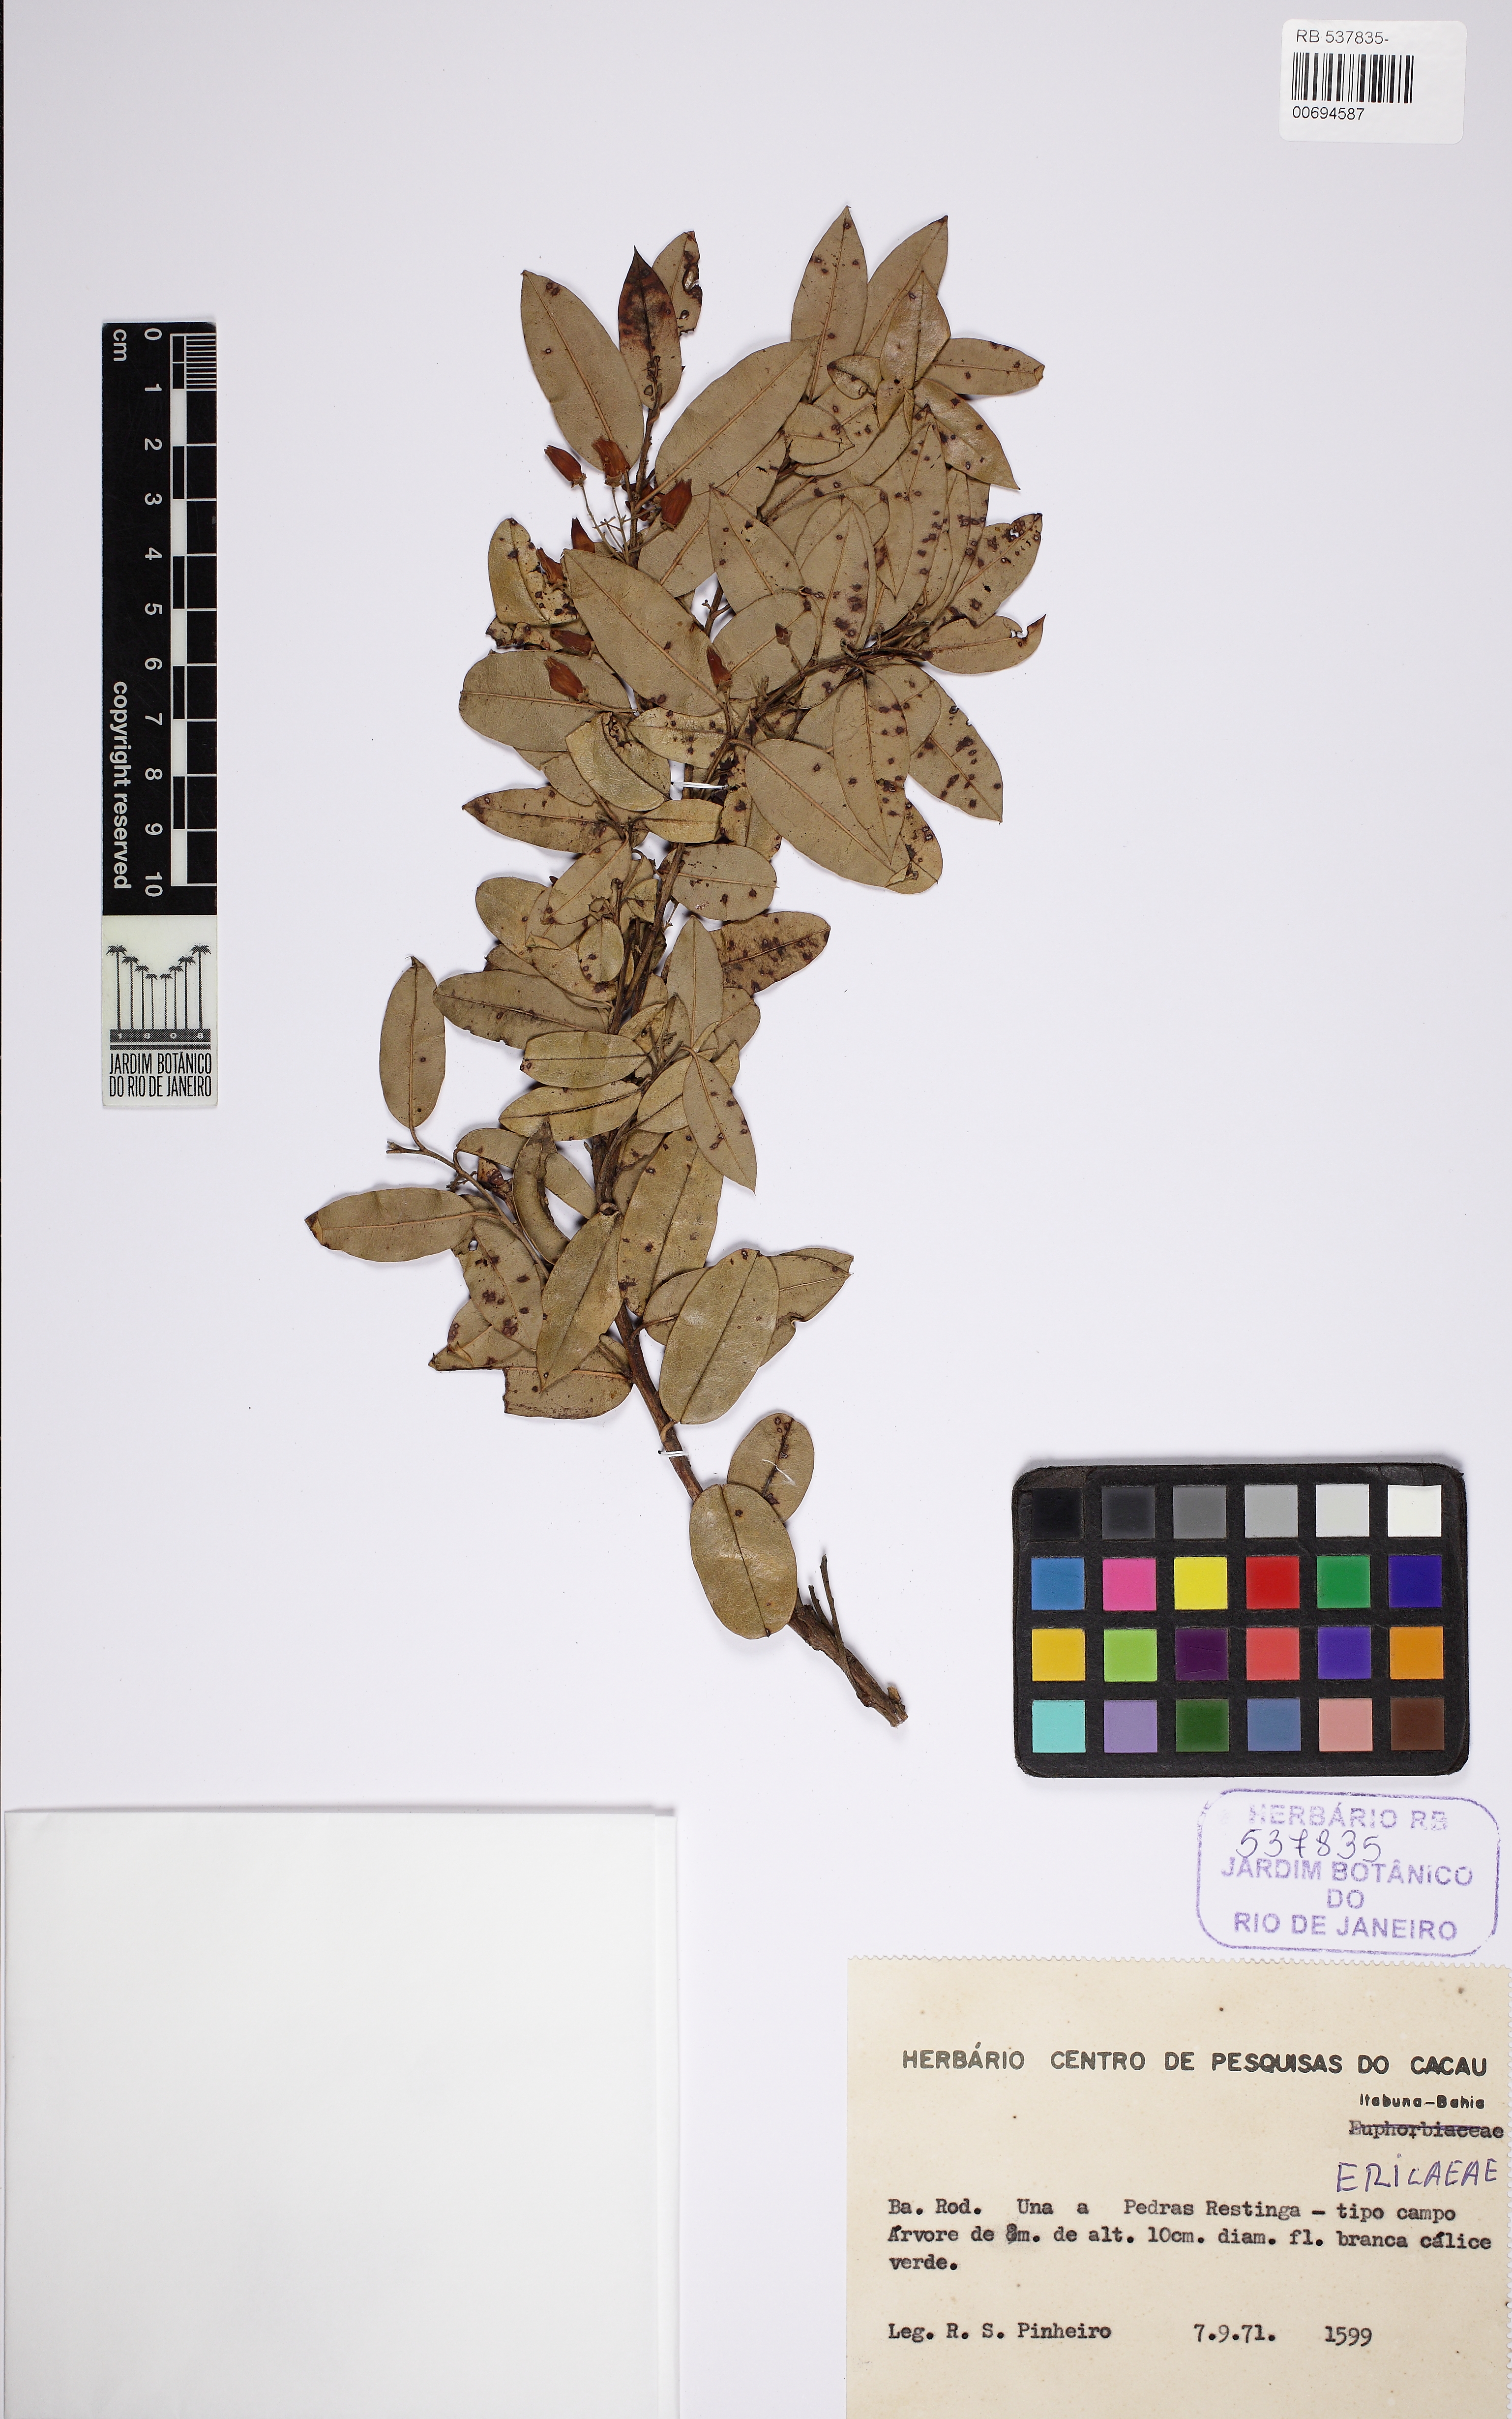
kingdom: Plantae
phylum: Tracheophyta
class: Magnoliopsida
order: Ericales
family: Ericaceae
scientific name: Ericaceae
